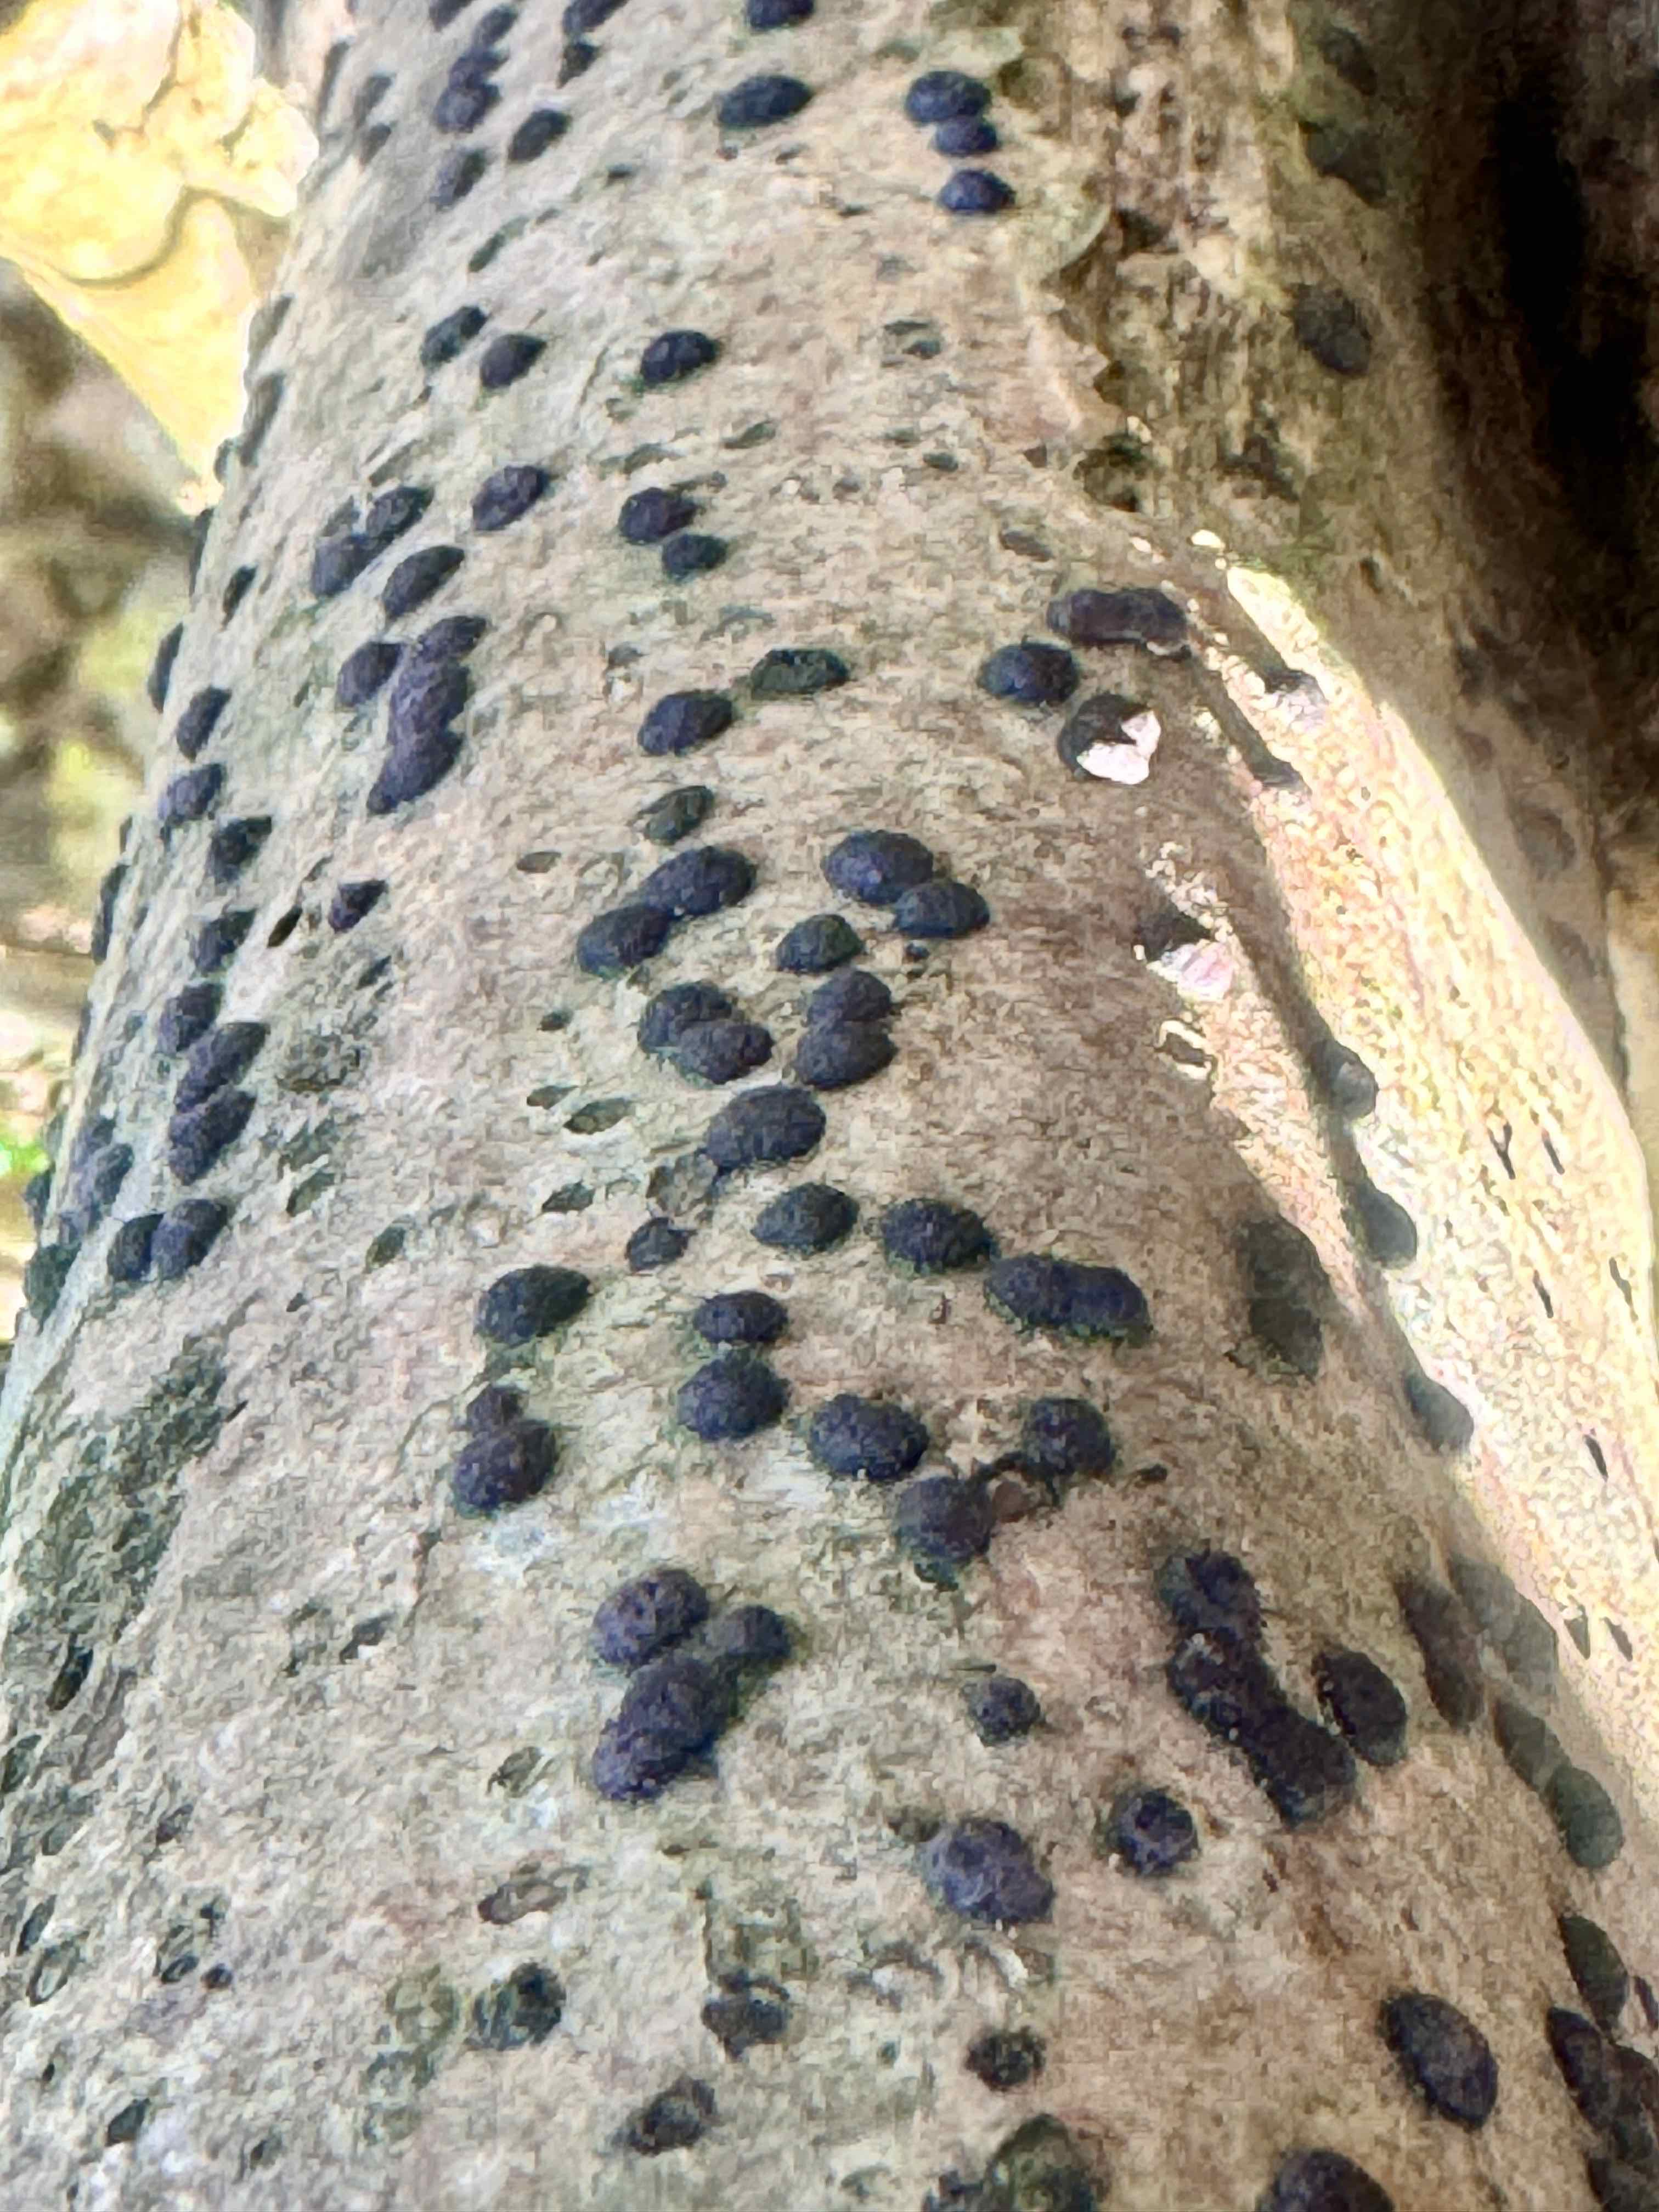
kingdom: Fungi
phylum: Ascomycota
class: Sordariomycetes
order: Xylariales
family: Hypoxylaceae
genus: Hypoxylon
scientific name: Hypoxylon fuscum
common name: kegleformet kulbær
